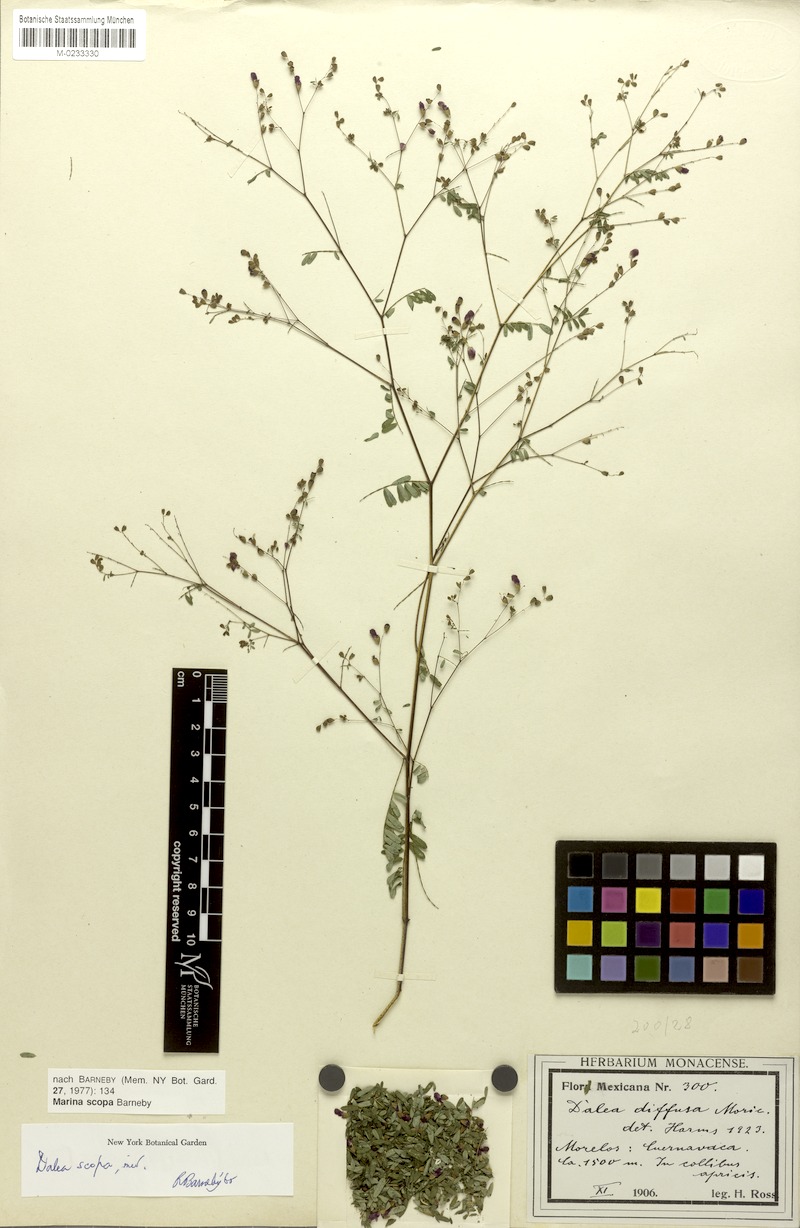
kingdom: Plantae
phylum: Tracheophyta
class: Magnoliopsida
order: Fabales
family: Fabaceae
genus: Marina
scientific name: Marina scopa
